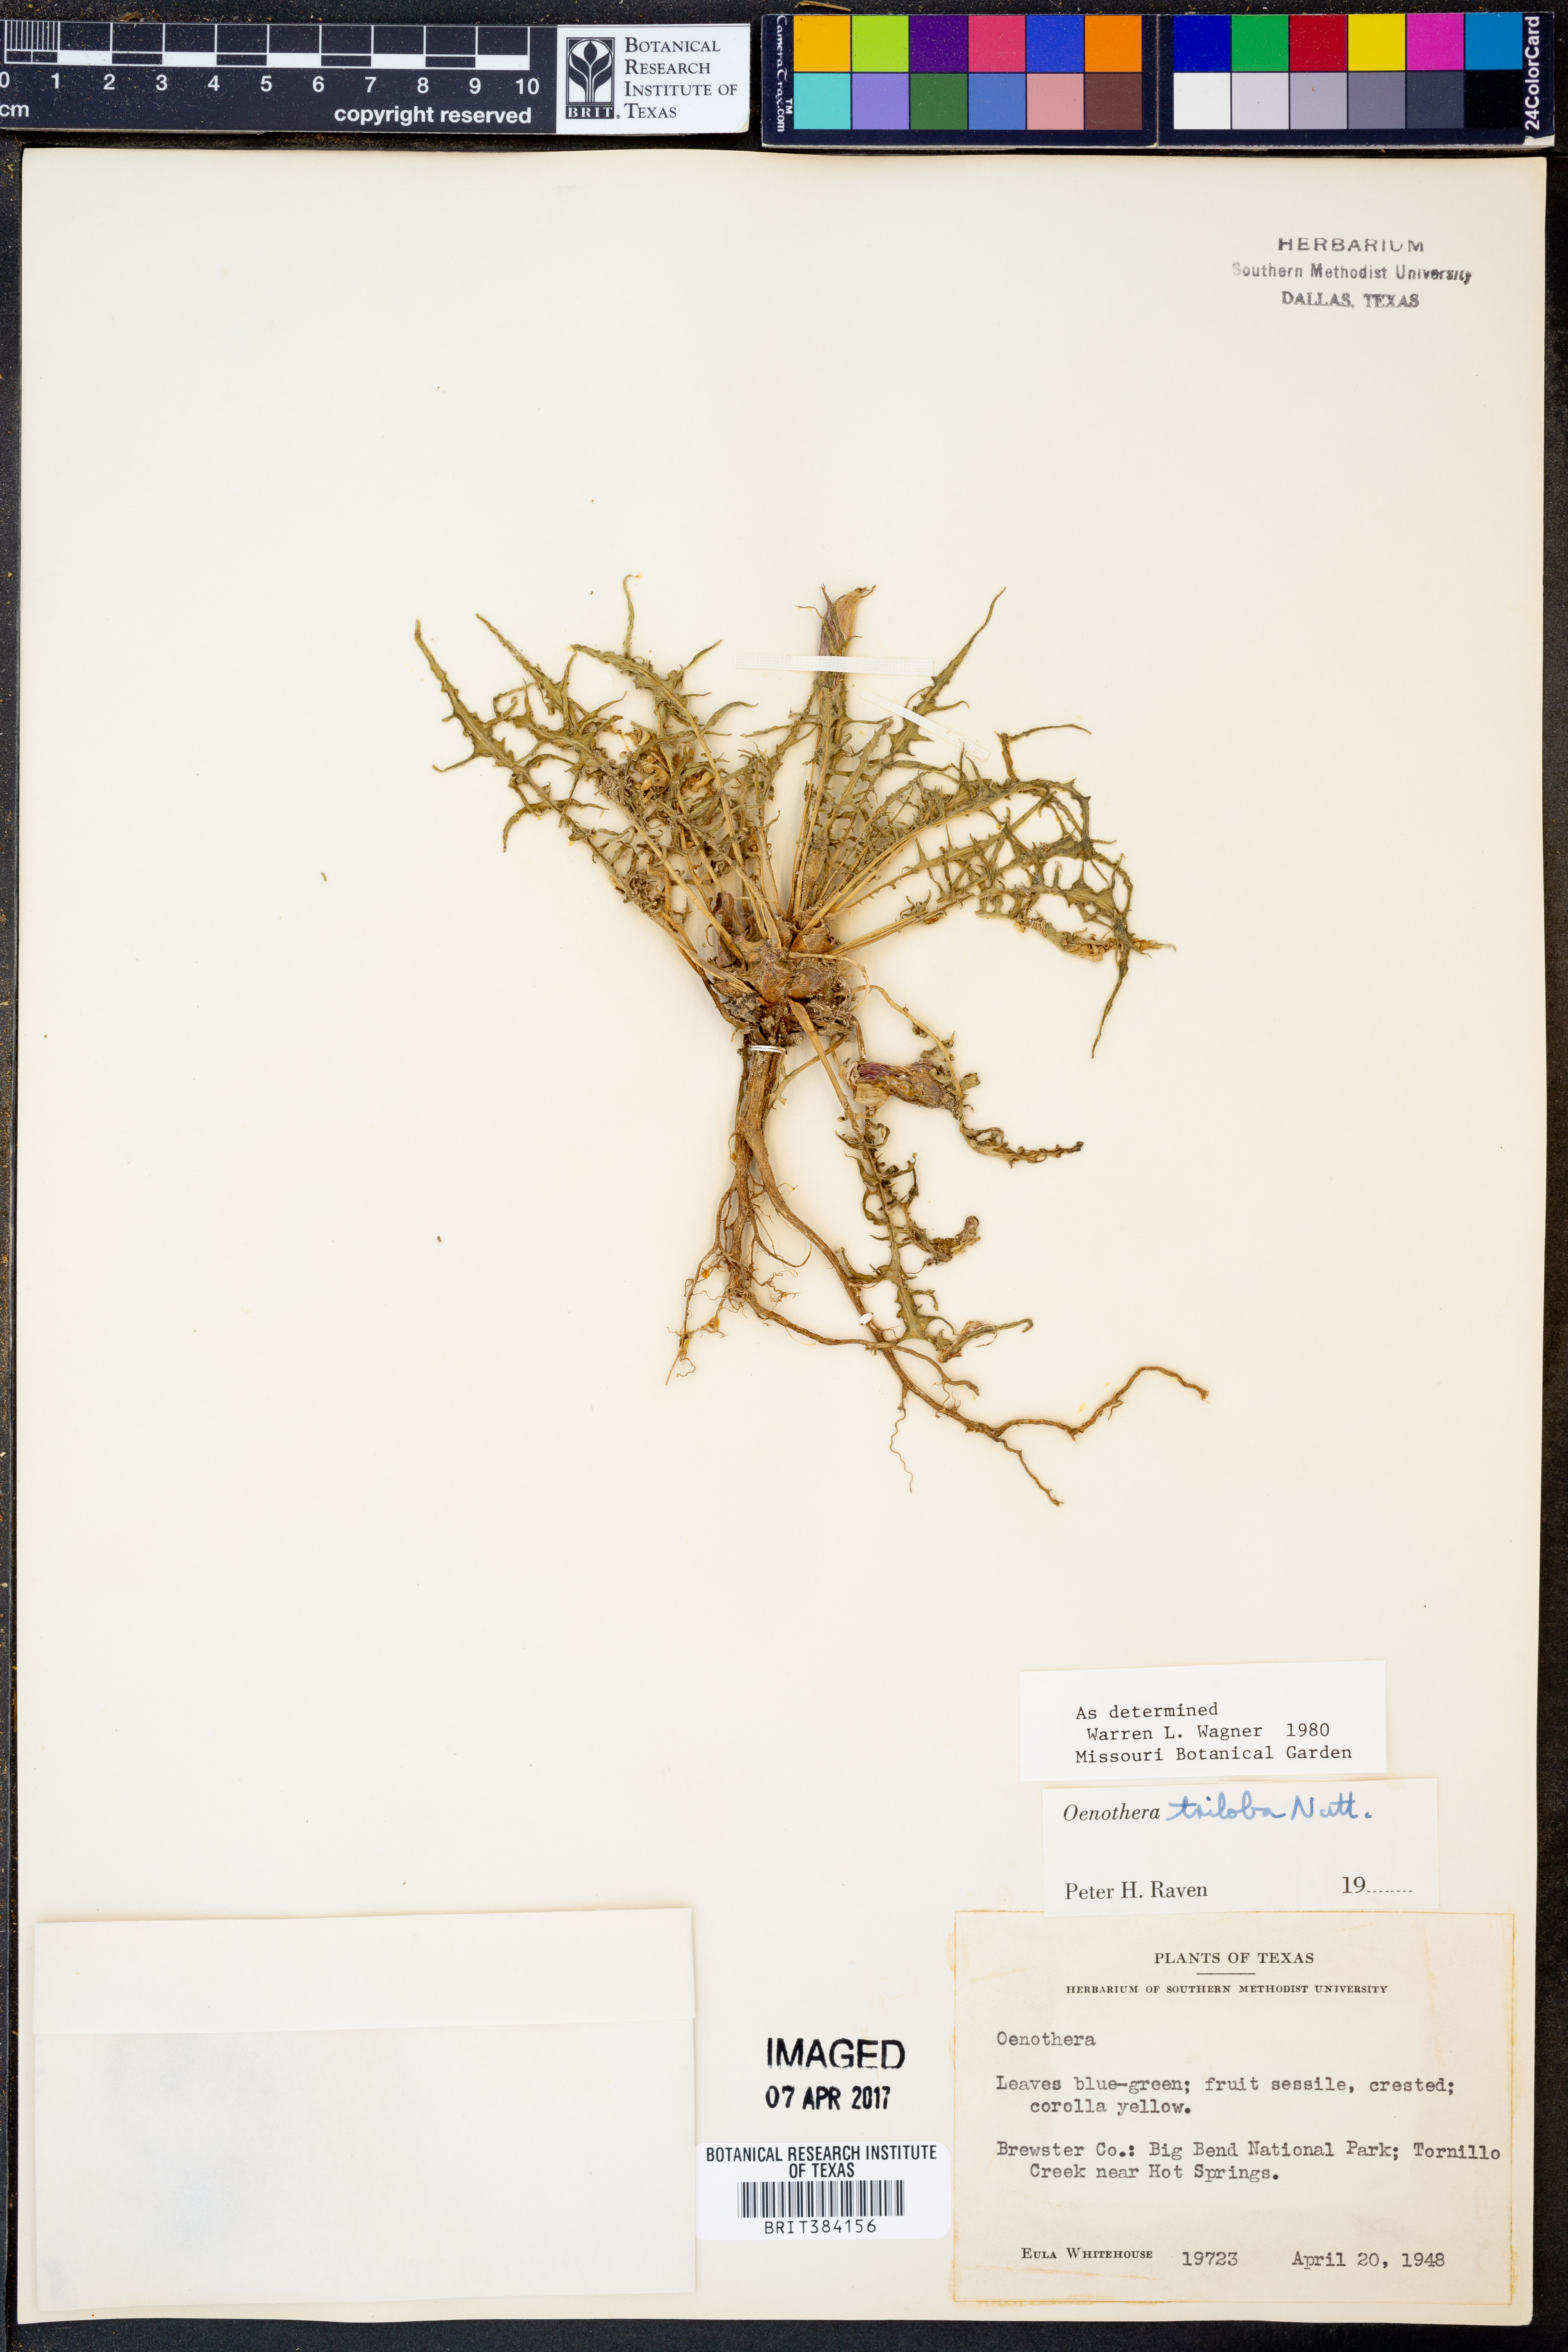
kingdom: Plantae
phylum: Tracheophyta
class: Magnoliopsida
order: Myrtales
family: Onagraceae
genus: Oenothera
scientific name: Oenothera triloba
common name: Sessile evening-primrose
